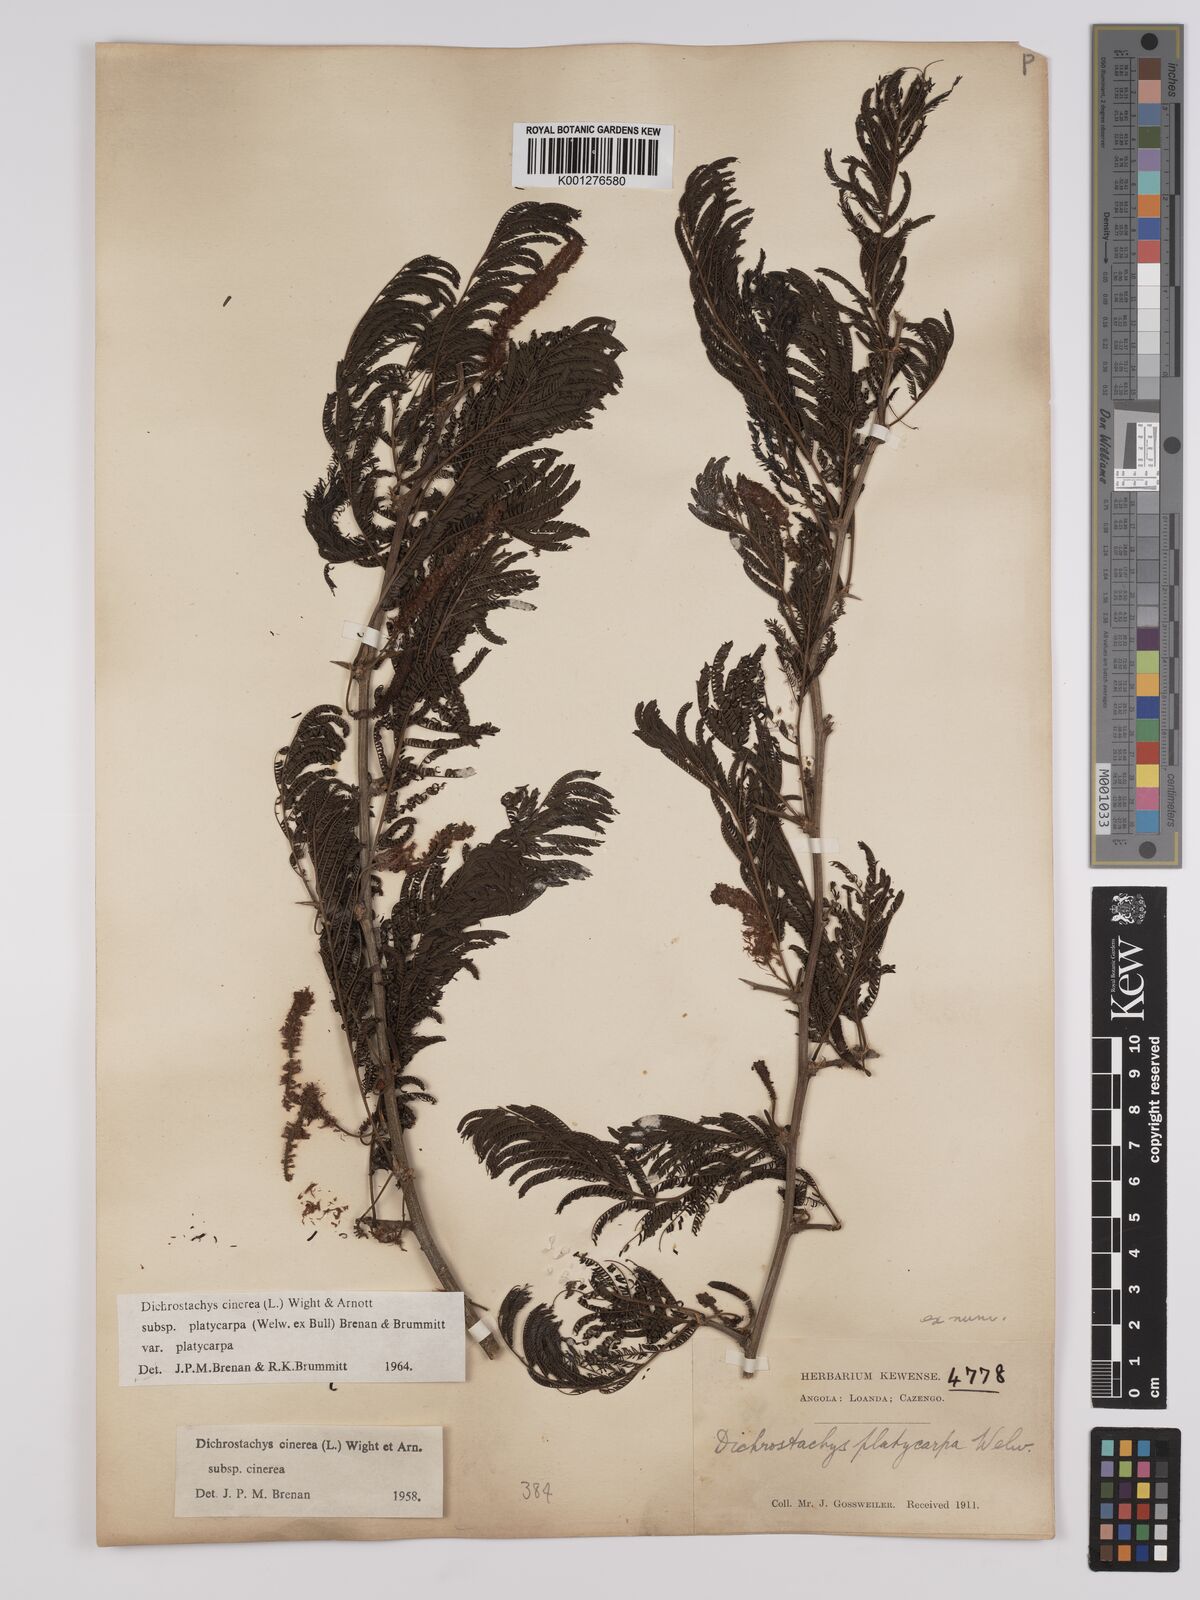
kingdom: Plantae
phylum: Tracheophyta
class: Magnoliopsida
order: Fabales
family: Fabaceae
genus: Dichrostachys
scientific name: Dichrostachys cinerea
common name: Sicklebush
